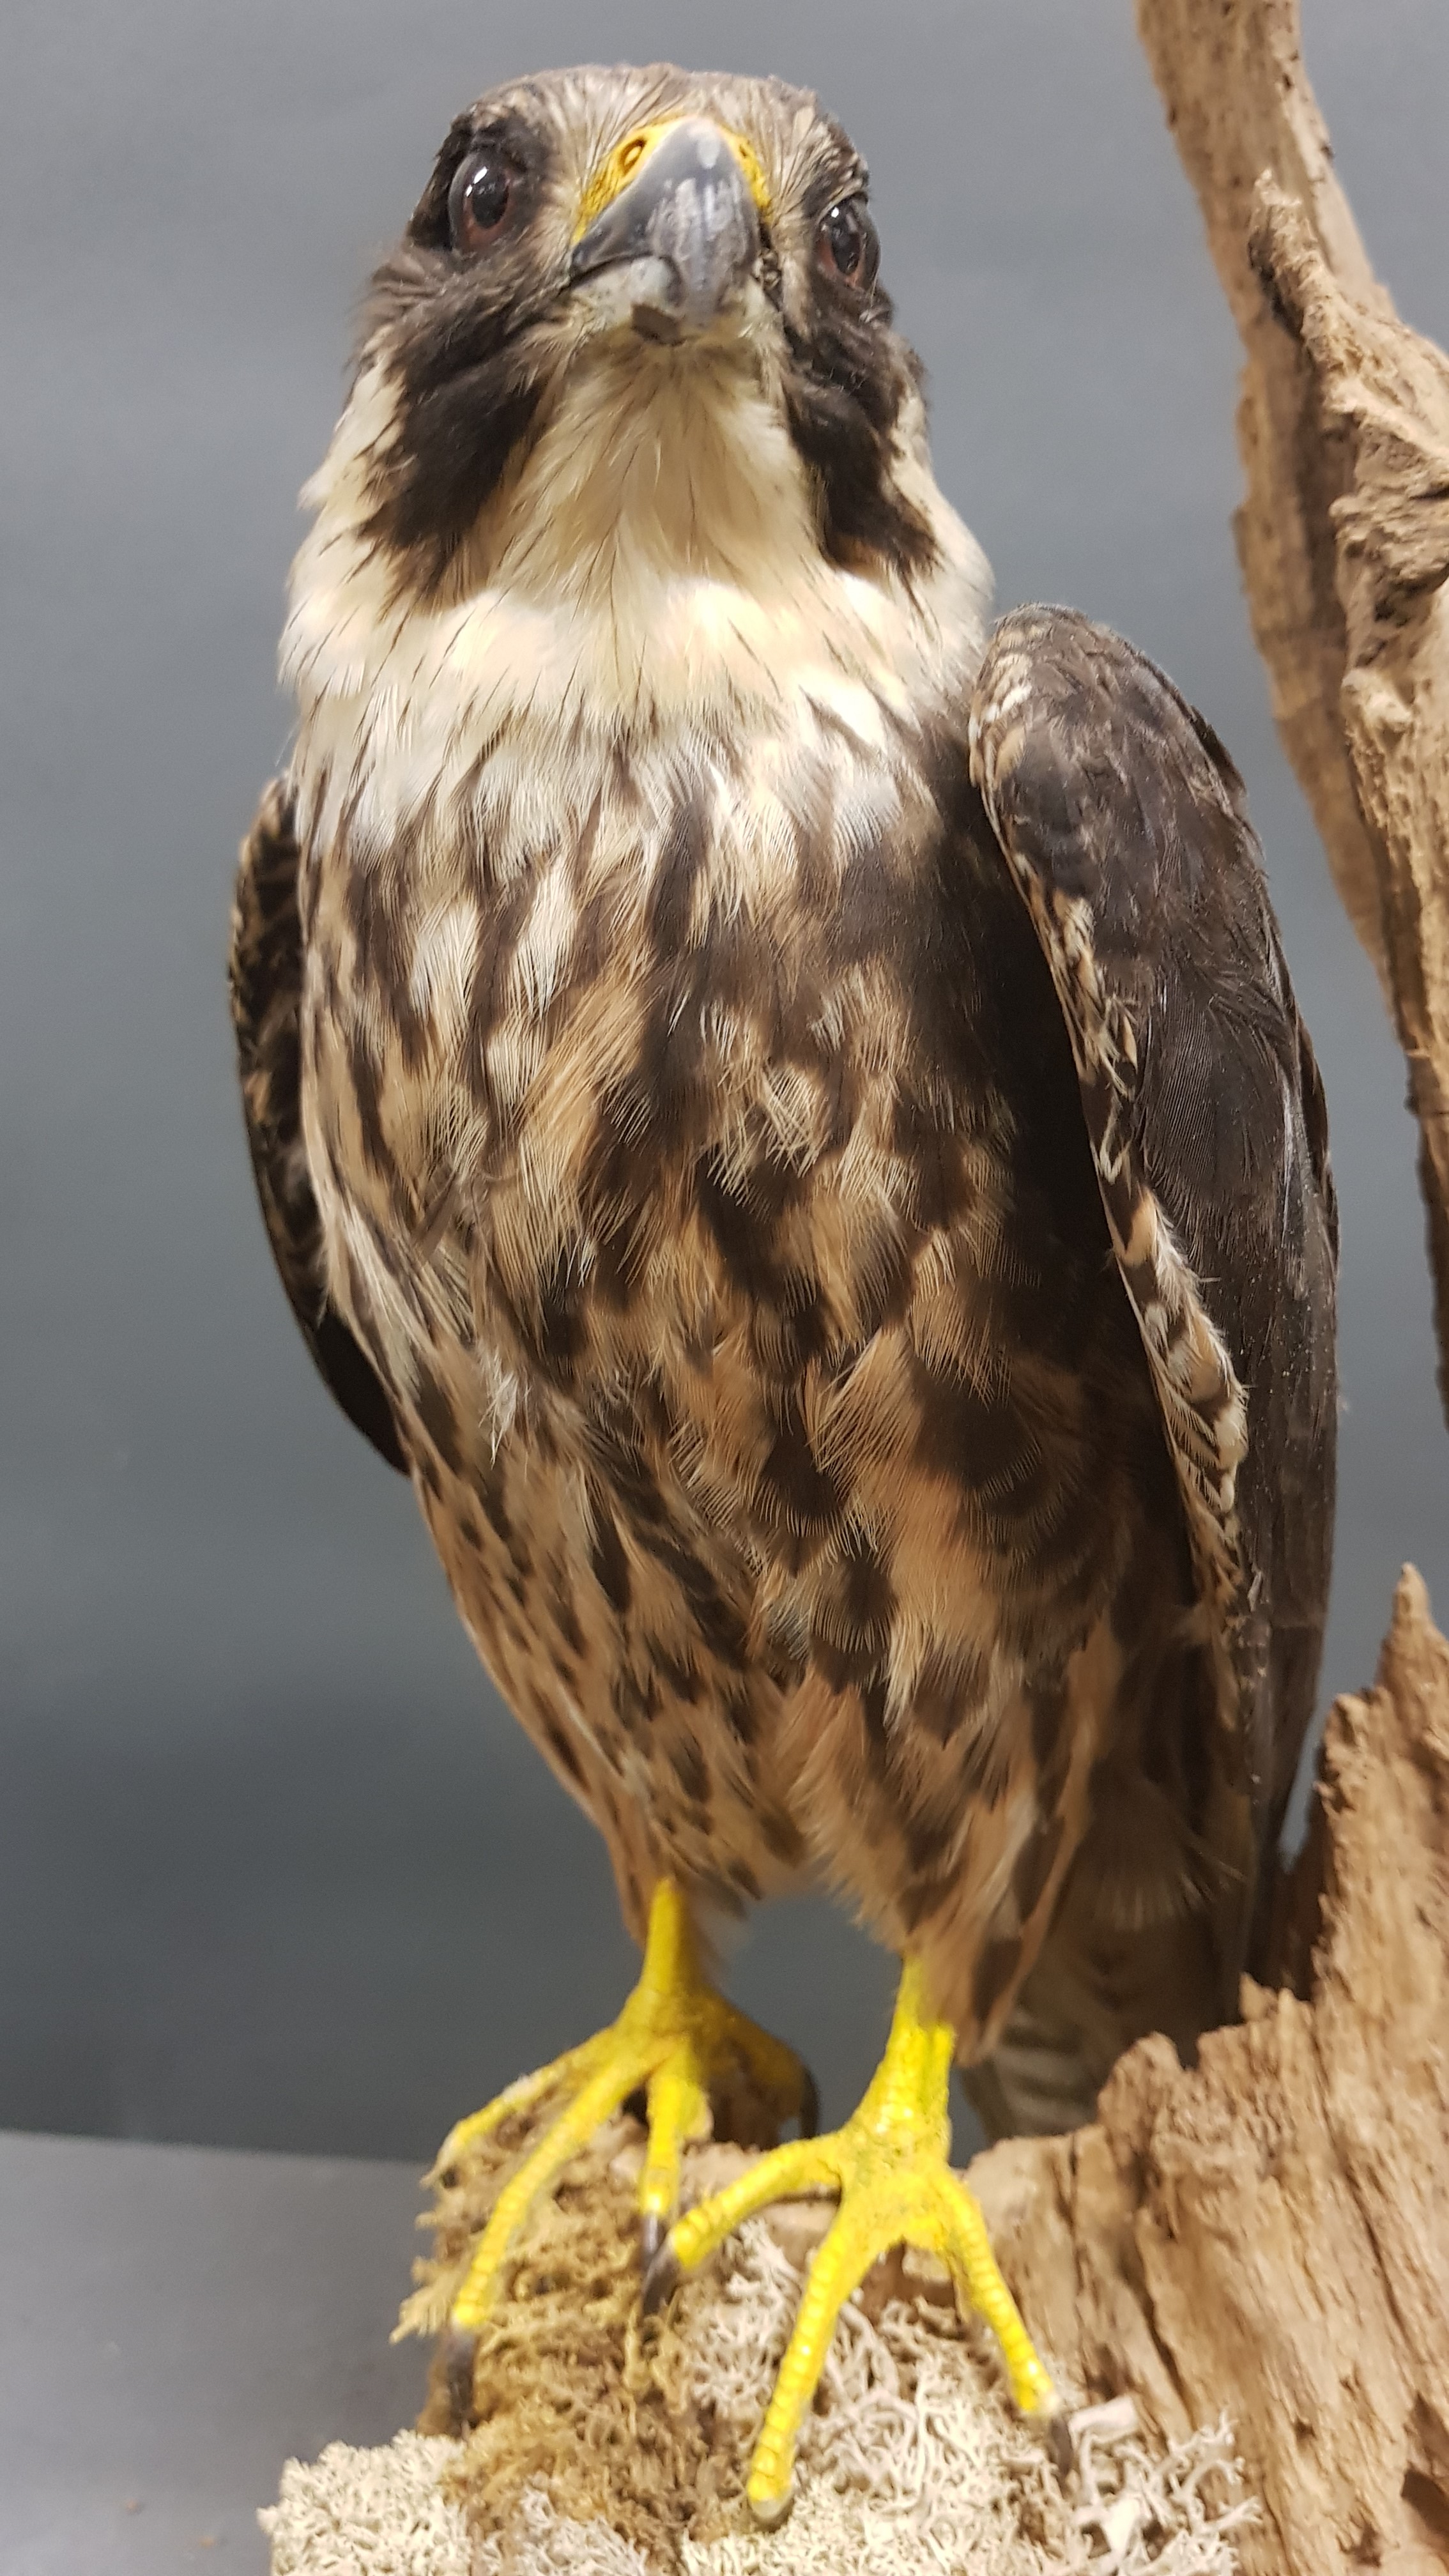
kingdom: Animalia
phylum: Chordata
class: Aves
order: Falconiformes
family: Falconidae
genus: Falco
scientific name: Falco eleonorae
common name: Eleonora's falcon
